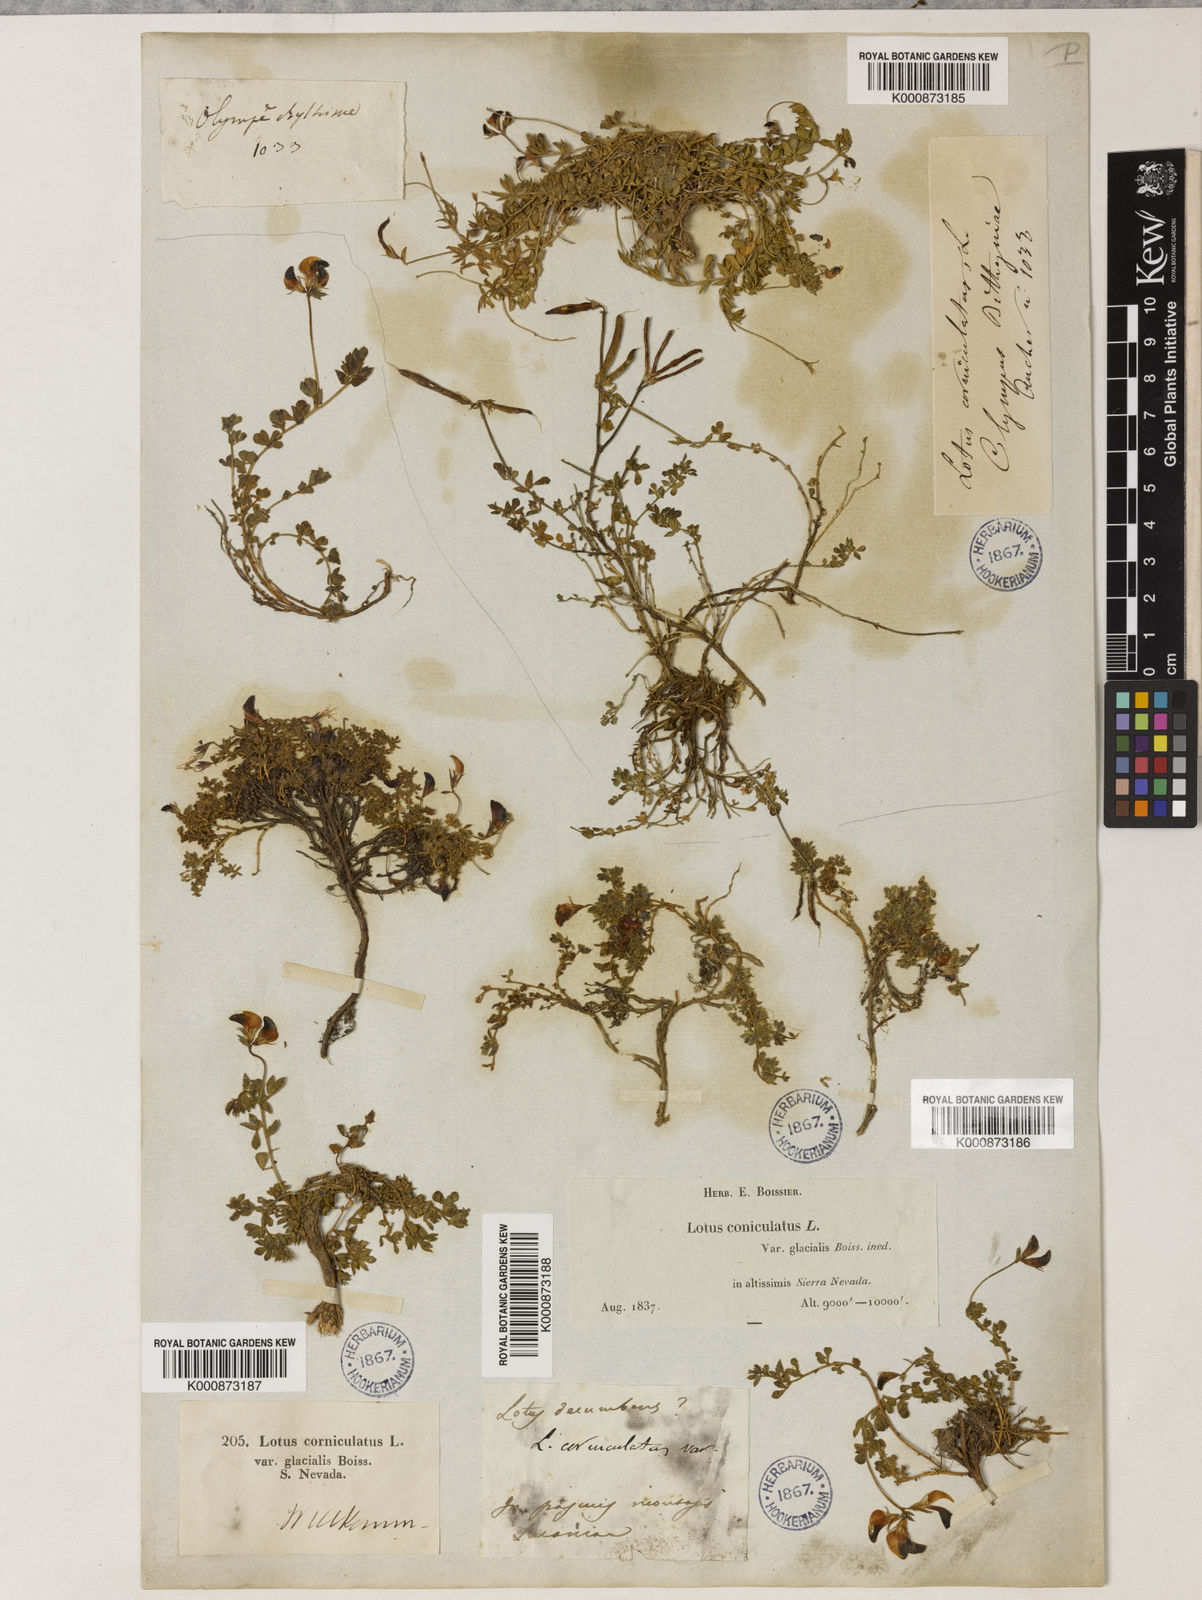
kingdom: Plantae
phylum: Tracheophyta
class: Magnoliopsida
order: Fabales
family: Fabaceae
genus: Lotus
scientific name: Lotus glareosus
